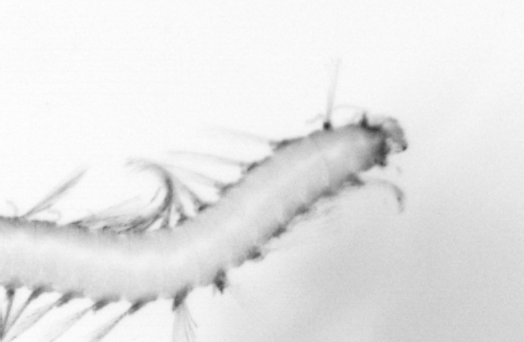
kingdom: Animalia
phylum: Annelida
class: Polychaeta
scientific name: Polychaeta
